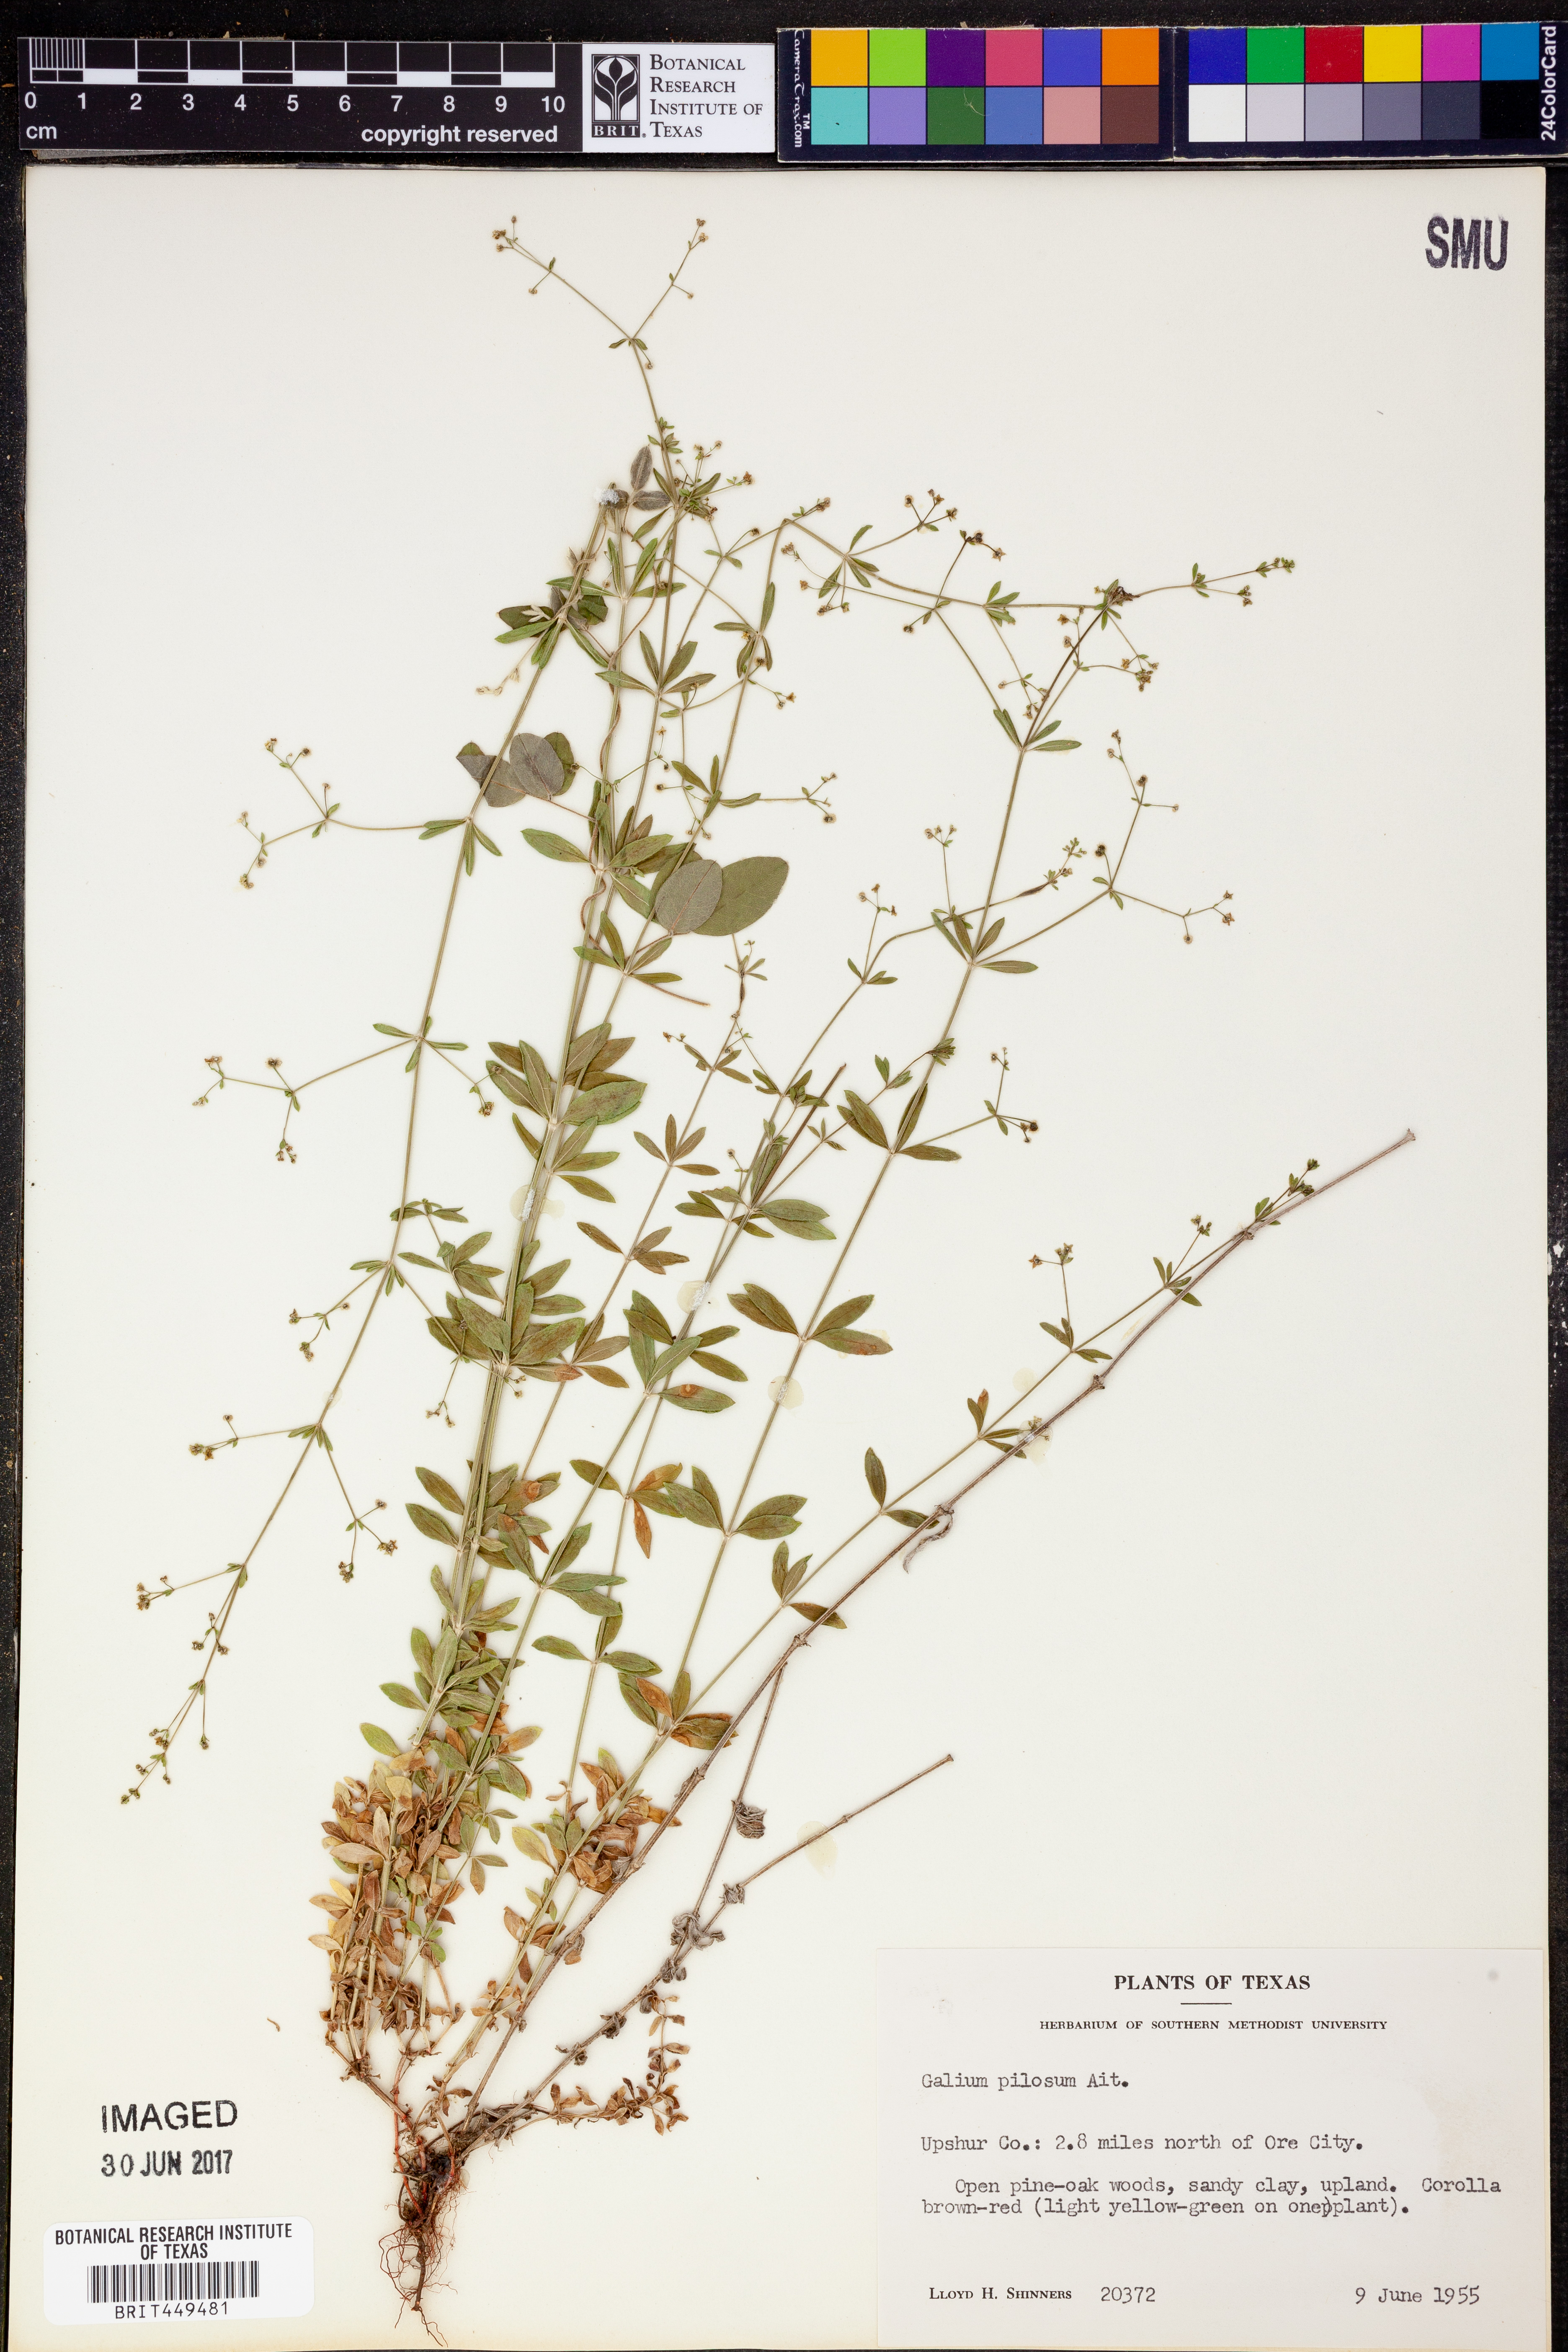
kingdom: Plantae
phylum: Tracheophyta
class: Magnoliopsida
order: Gentianales
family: Rubiaceae
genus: Galium
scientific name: Galium pilosum
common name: Hairy bedstraw
